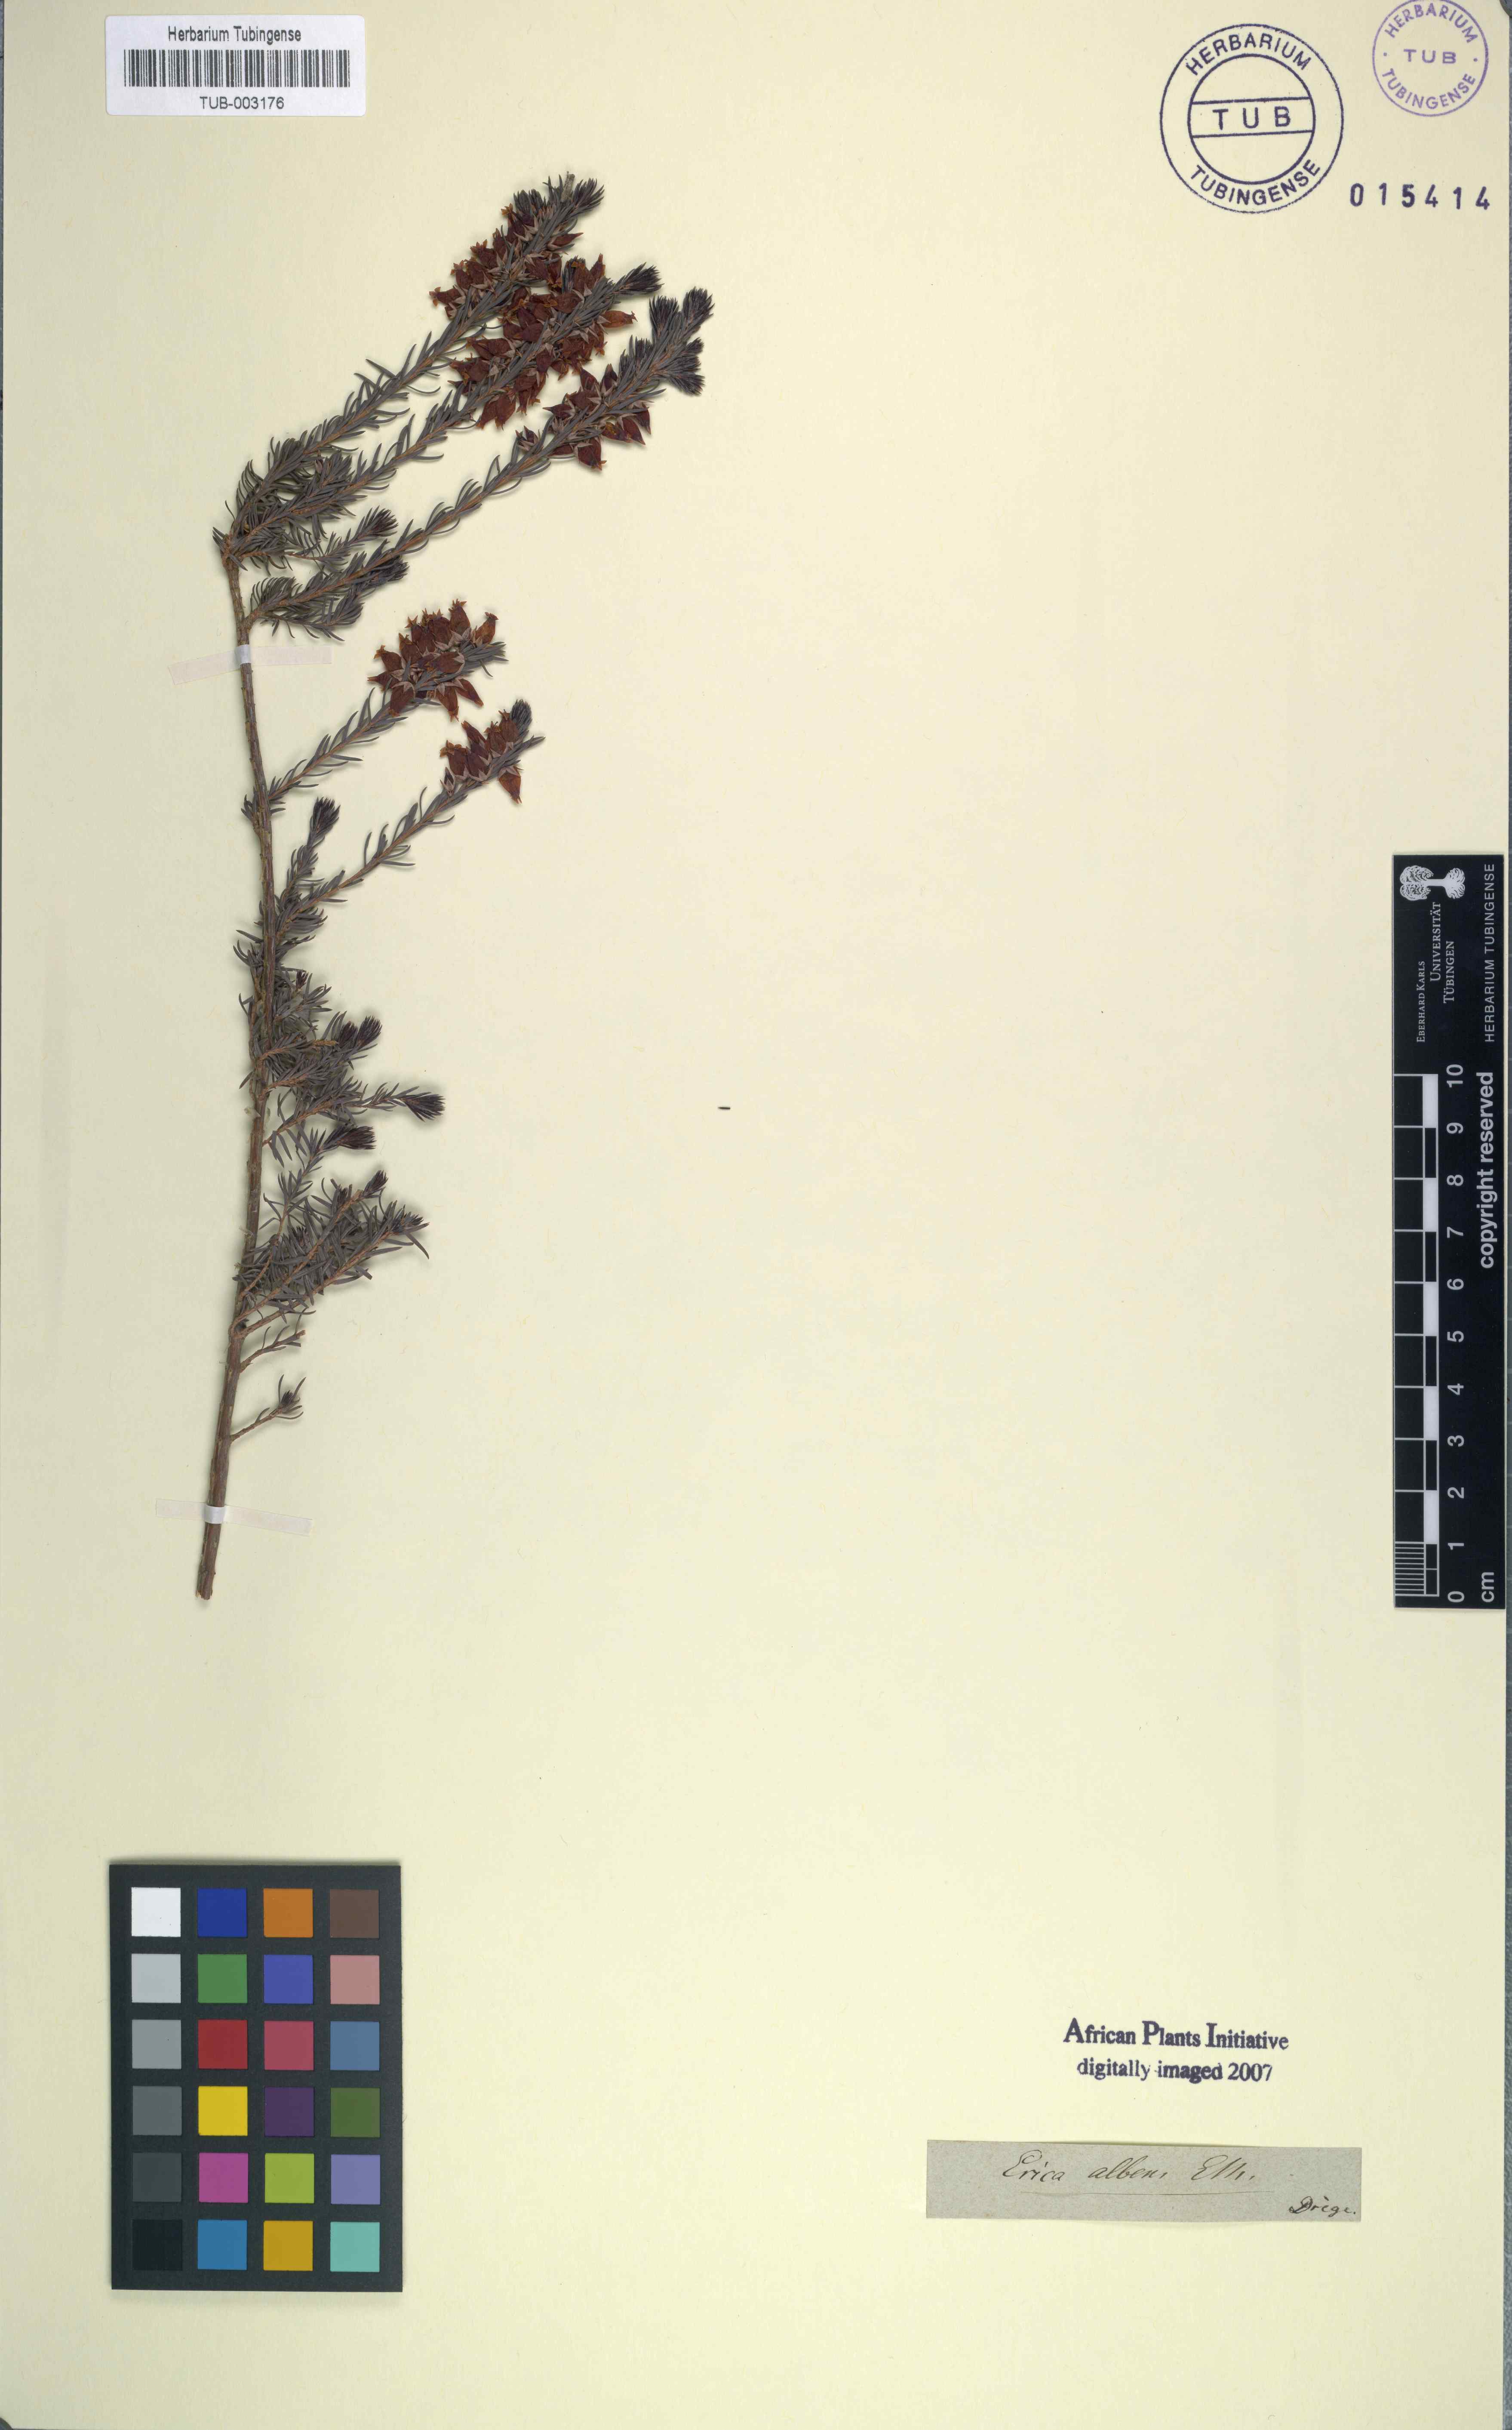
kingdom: Plantae
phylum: Tracheophyta
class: Magnoliopsida
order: Ericales
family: Ericaceae
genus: Erica
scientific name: Erica albens
